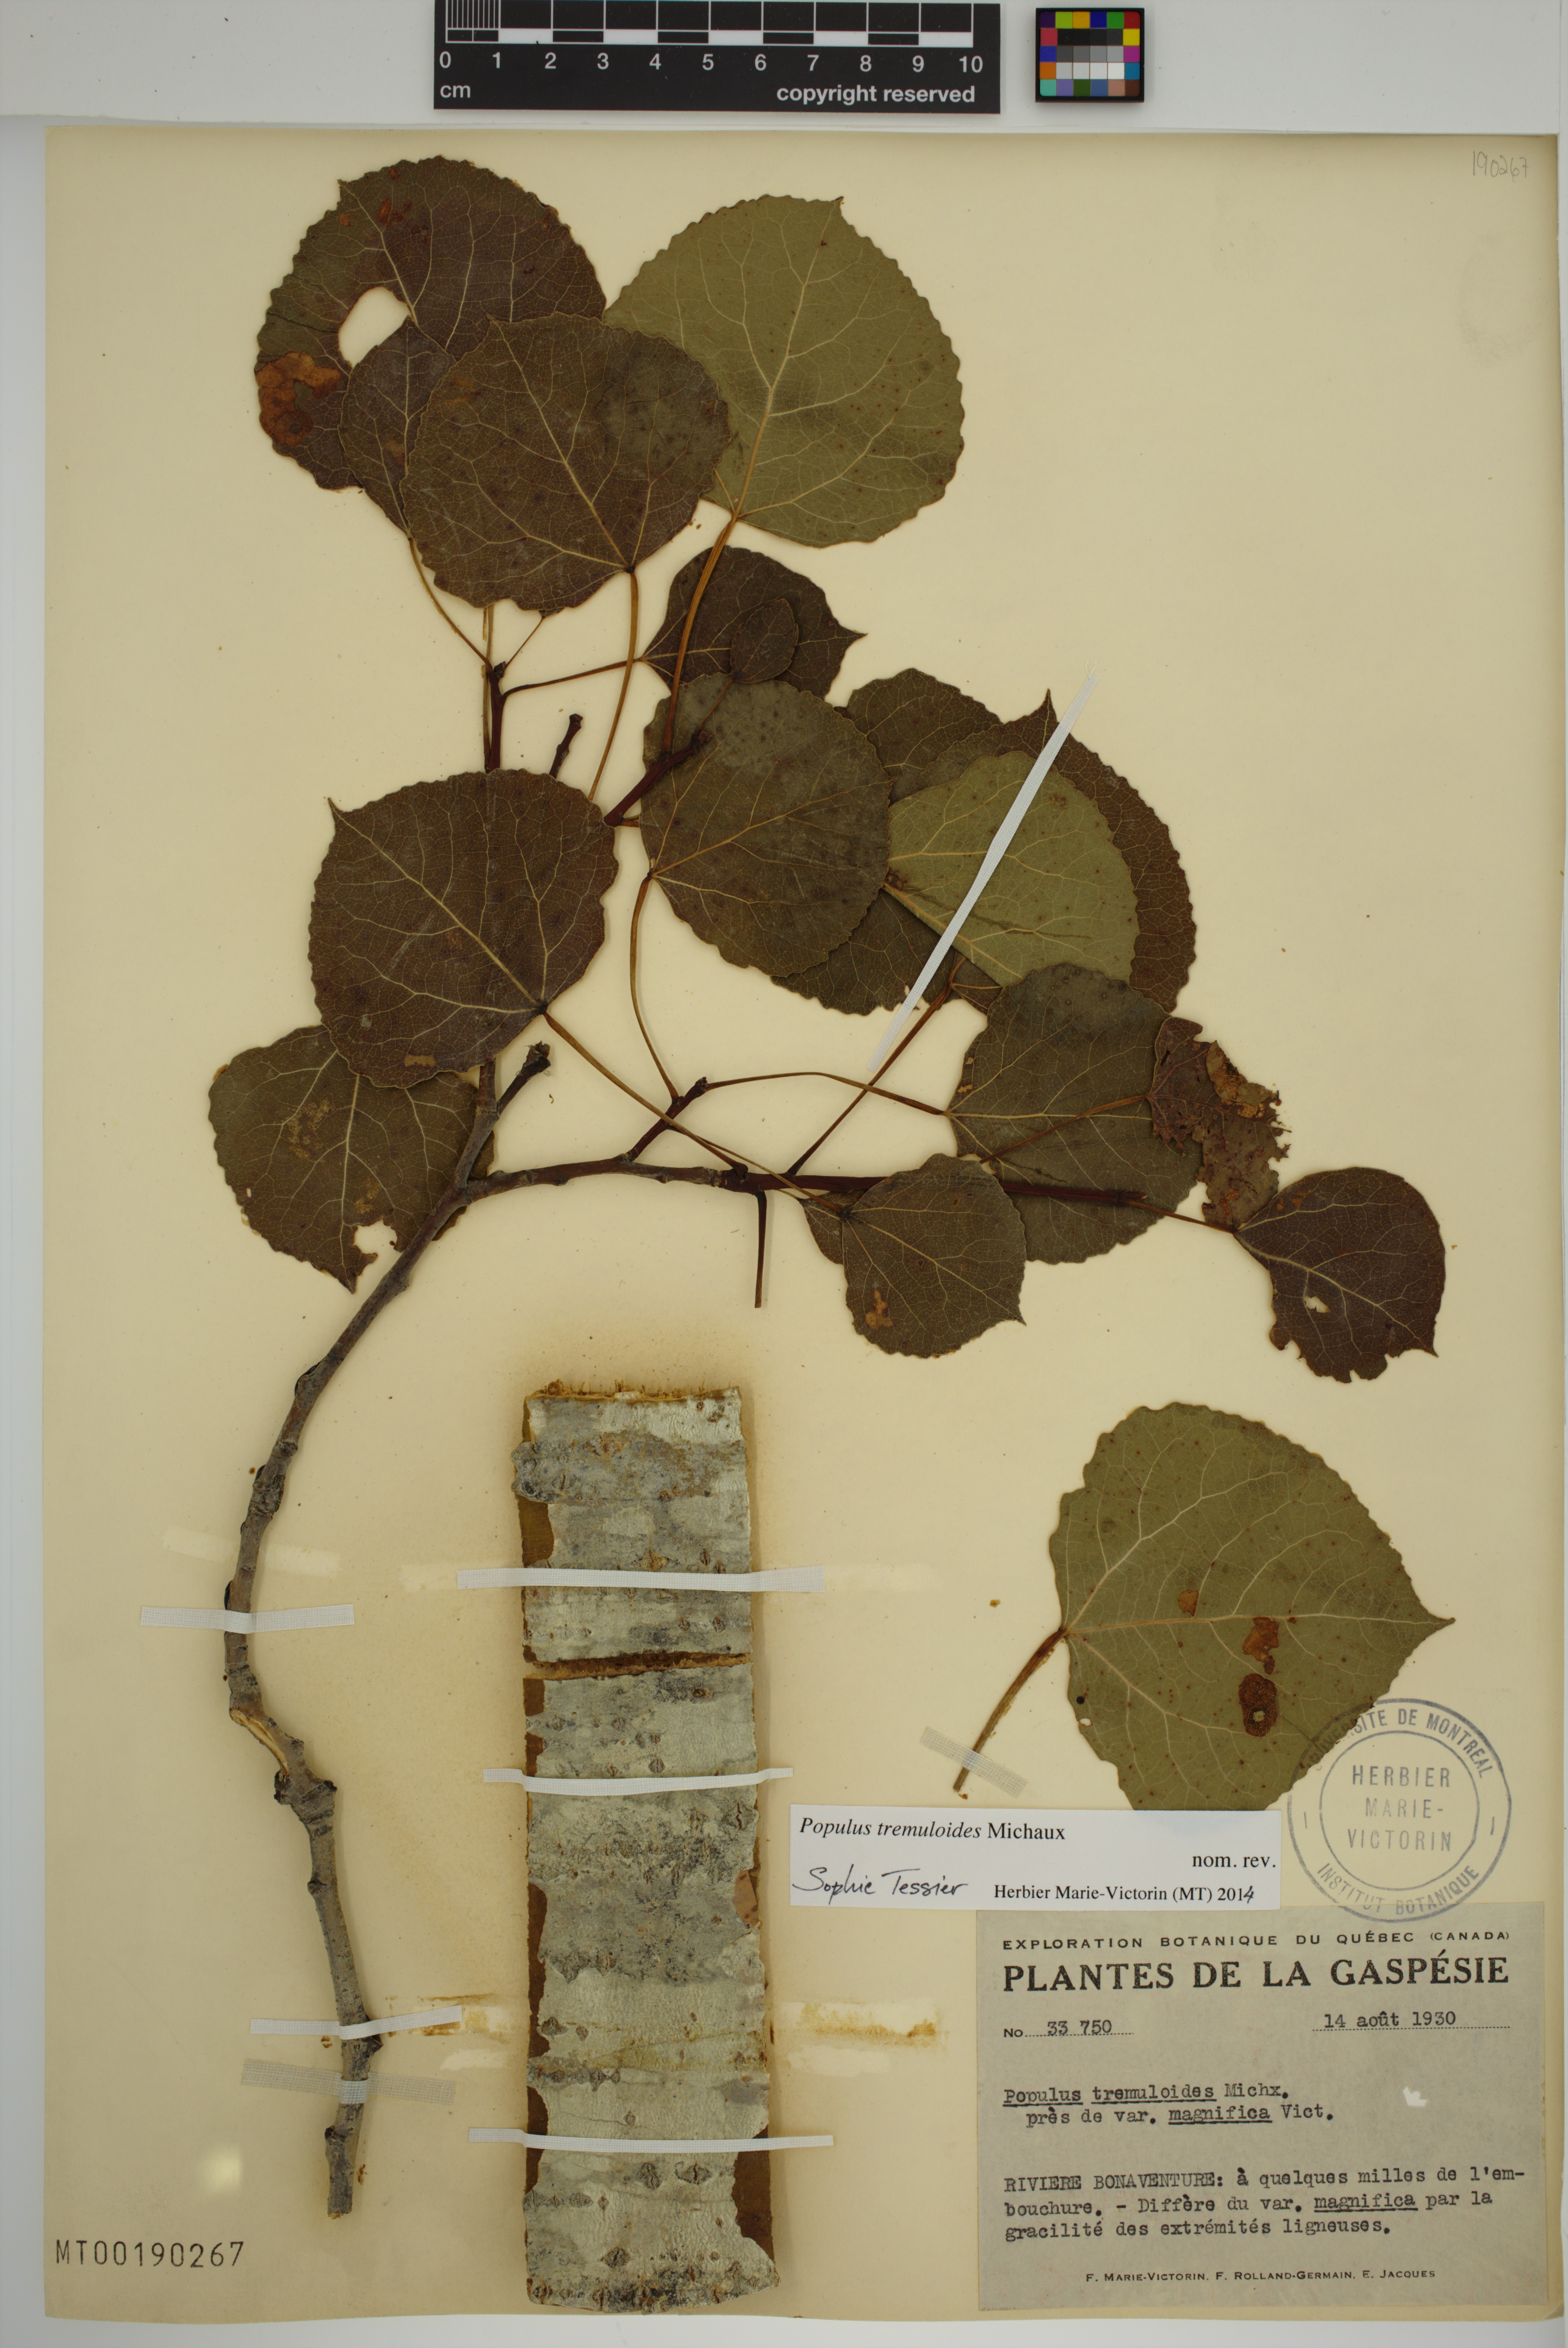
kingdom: Plantae
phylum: Tracheophyta
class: Magnoliopsida
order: Malpighiales
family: Salicaceae
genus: Populus
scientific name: Populus tremuloides
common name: Quaking aspen
